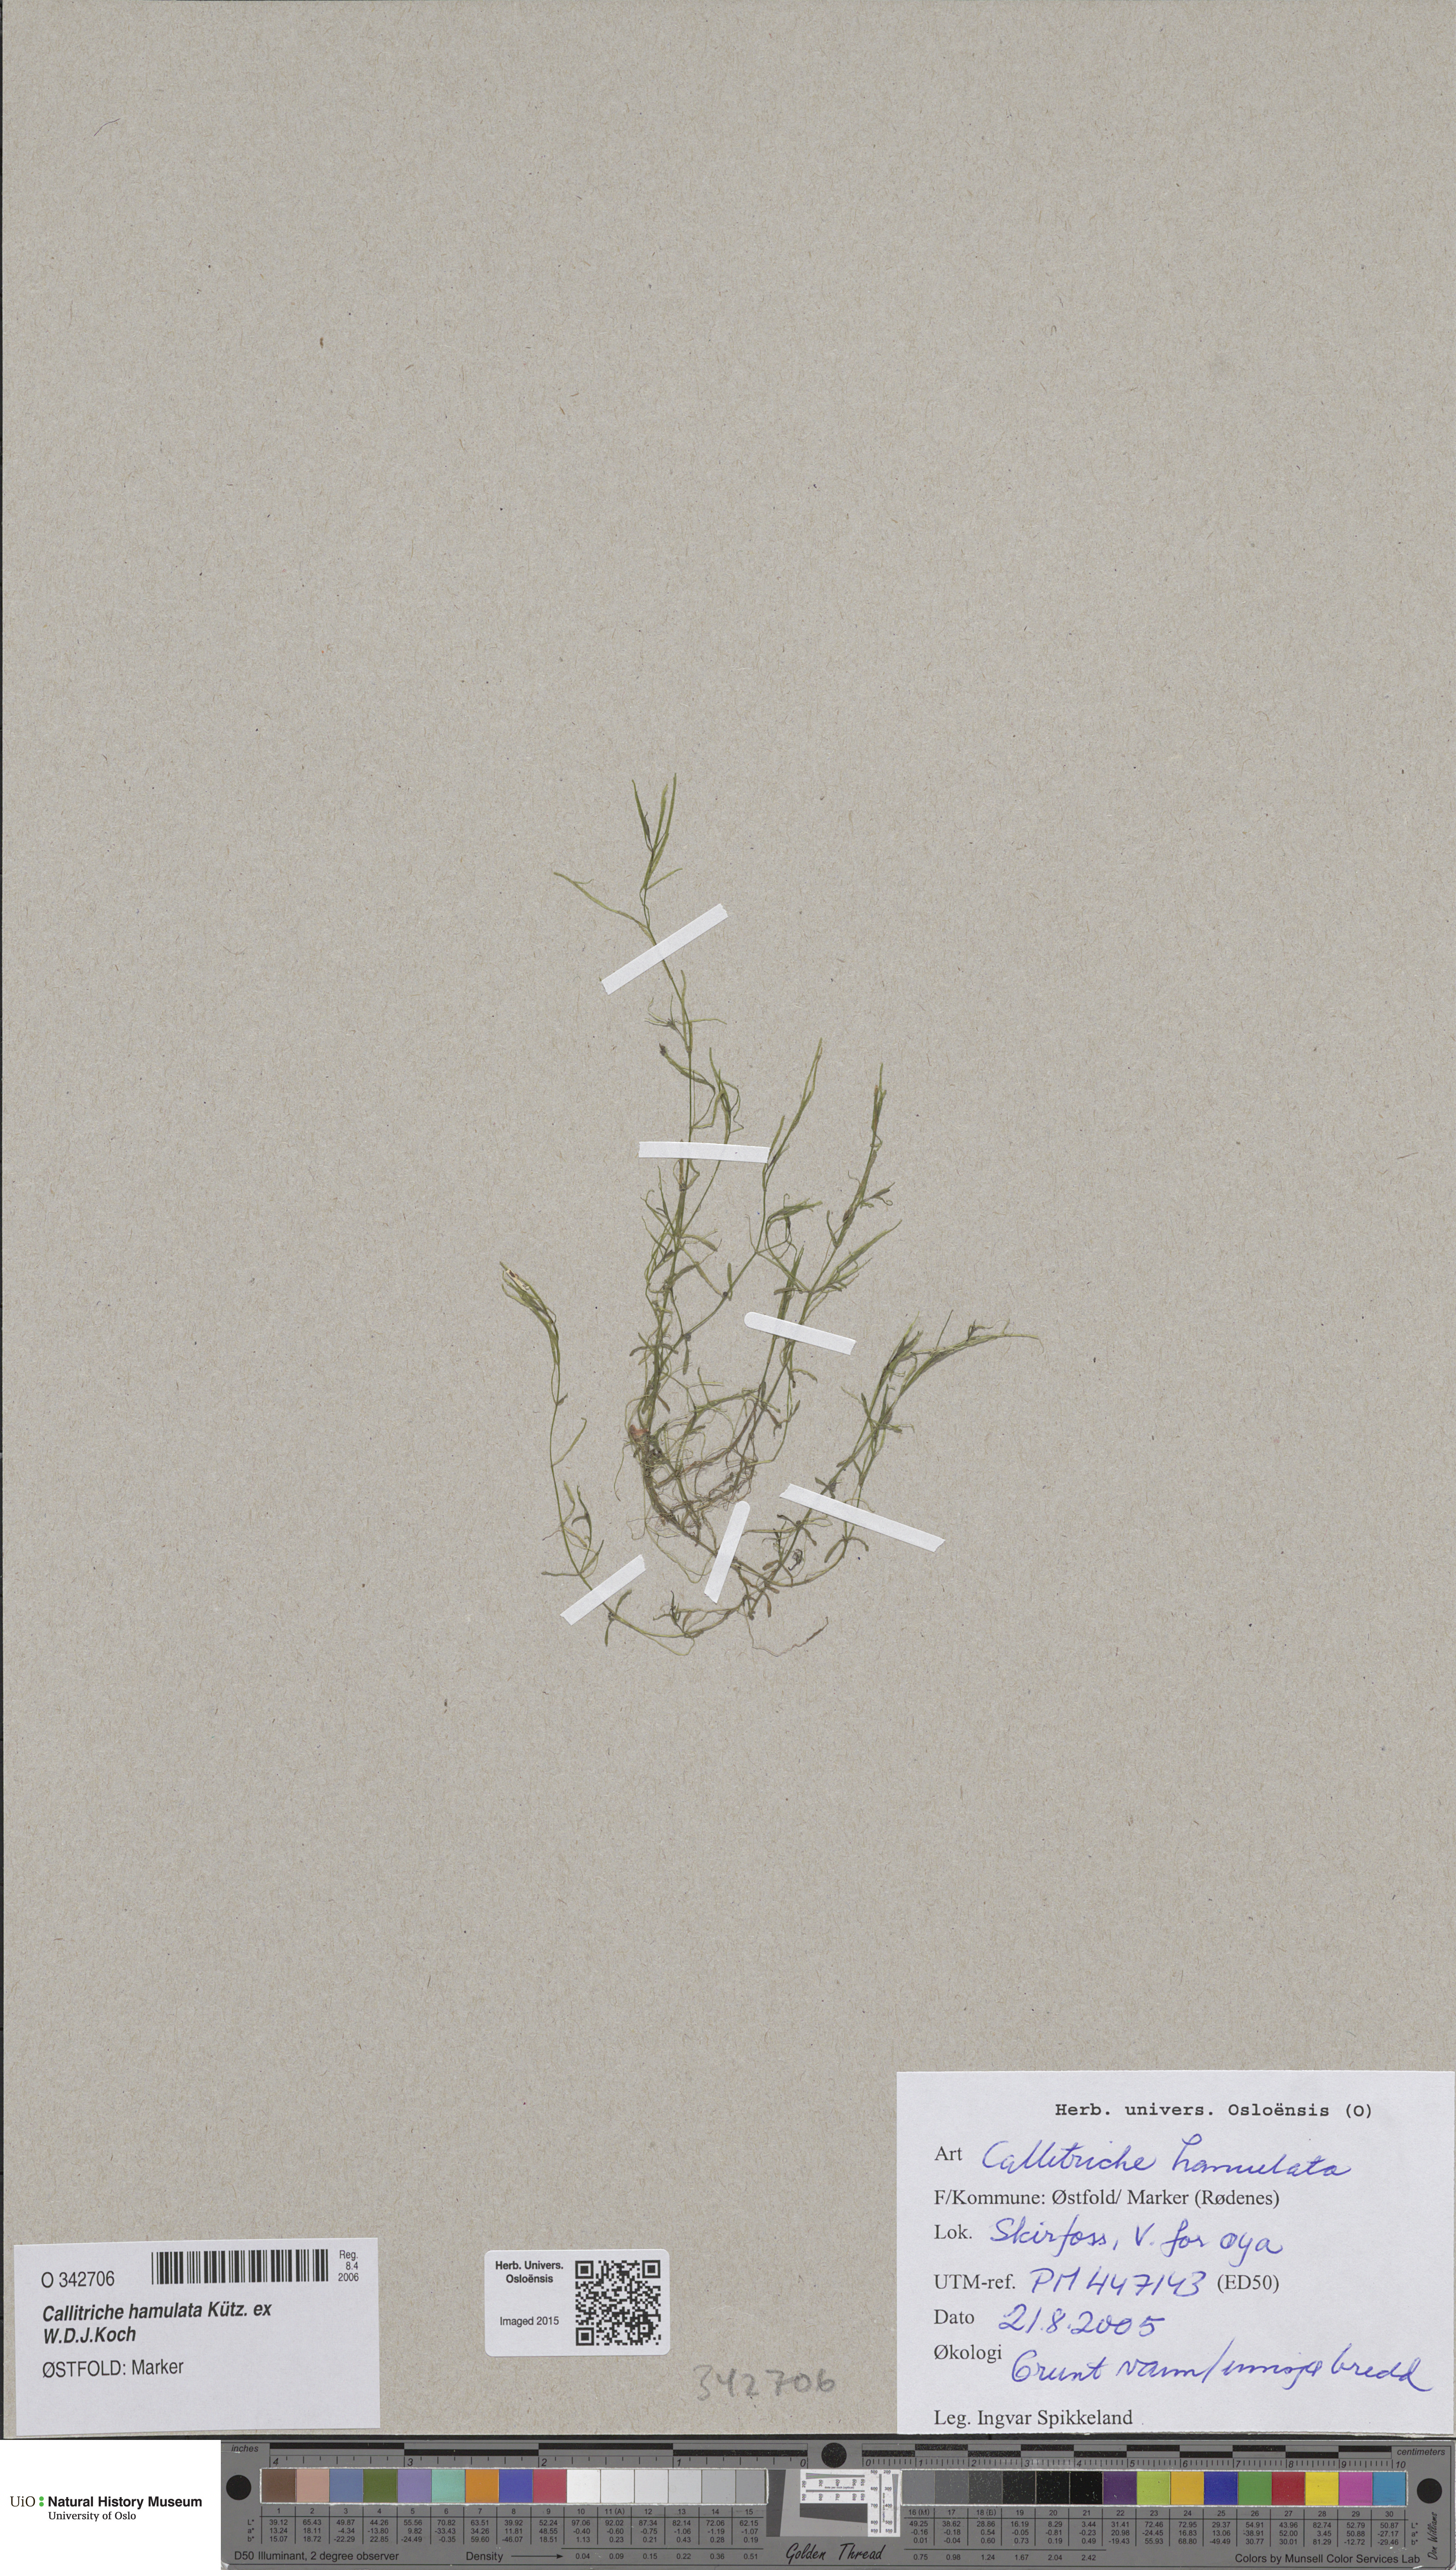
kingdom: Plantae
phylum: Tracheophyta
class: Magnoliopsida
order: Lamiales
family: Plantaginaceae
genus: Callitriche
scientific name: Callitriche hamulata
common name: Intermediate water-starwort
